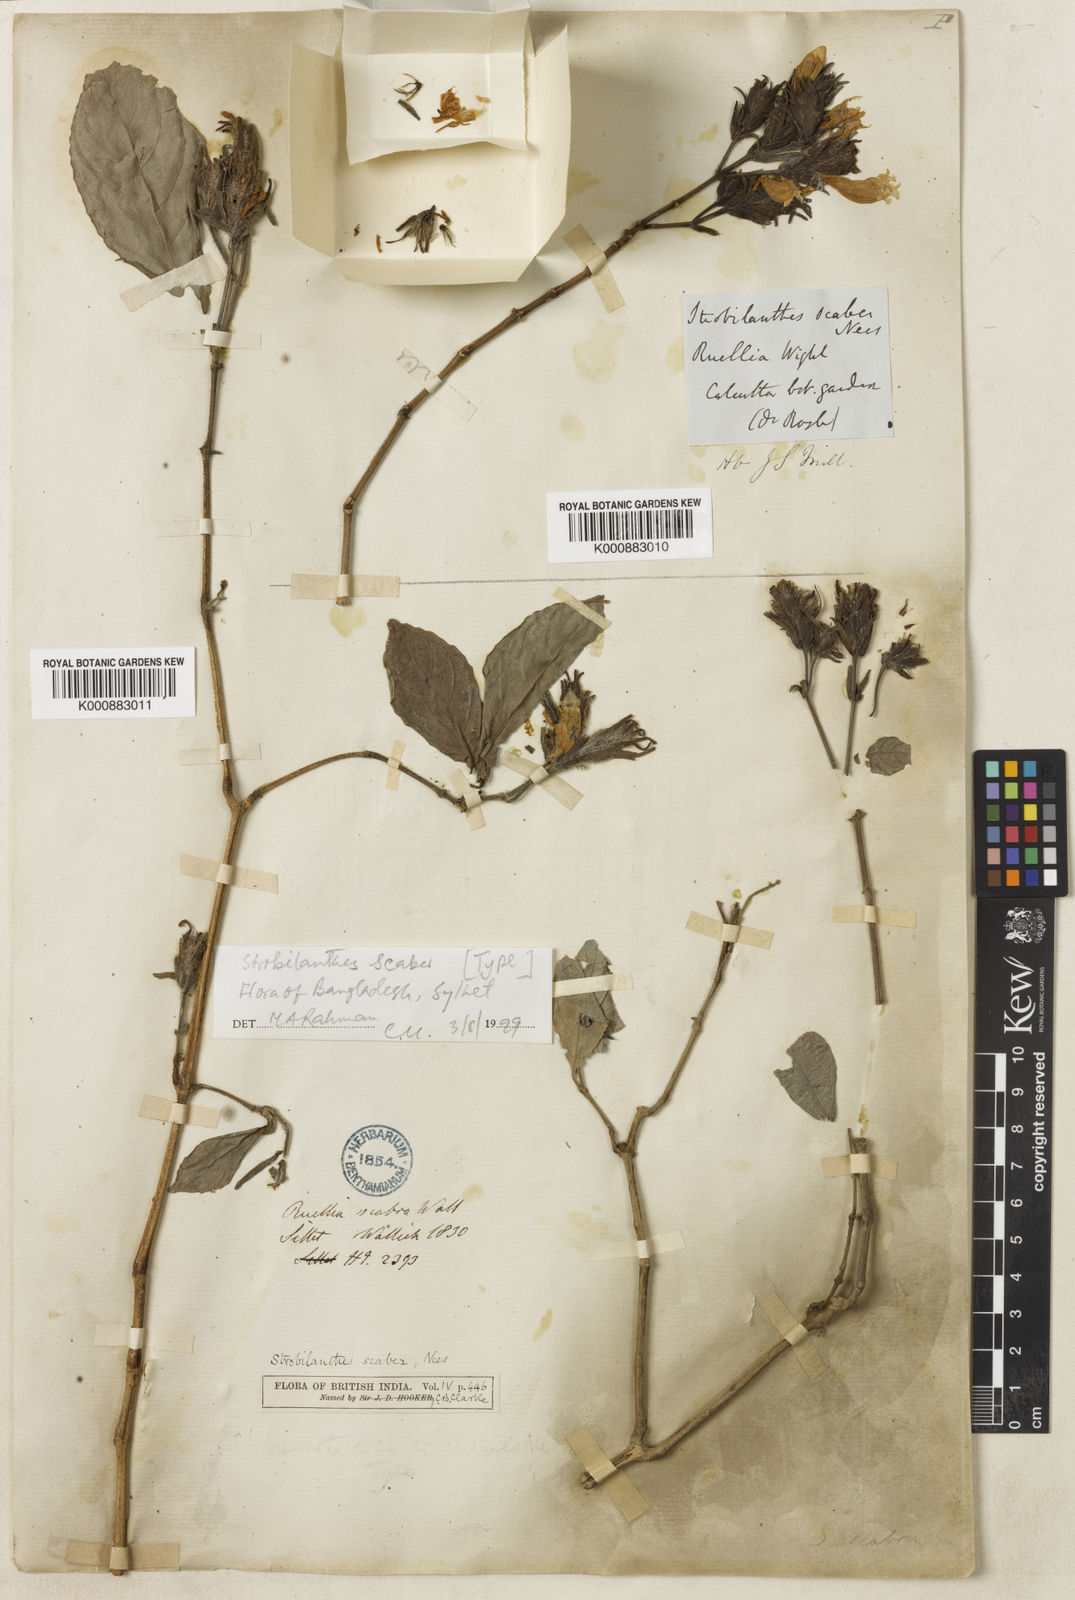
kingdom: Plantae
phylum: Tracheophyta
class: Magnoliopsida
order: Lamiales
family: Acanthaceae
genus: Strobilanthes
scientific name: Strobilanthes
